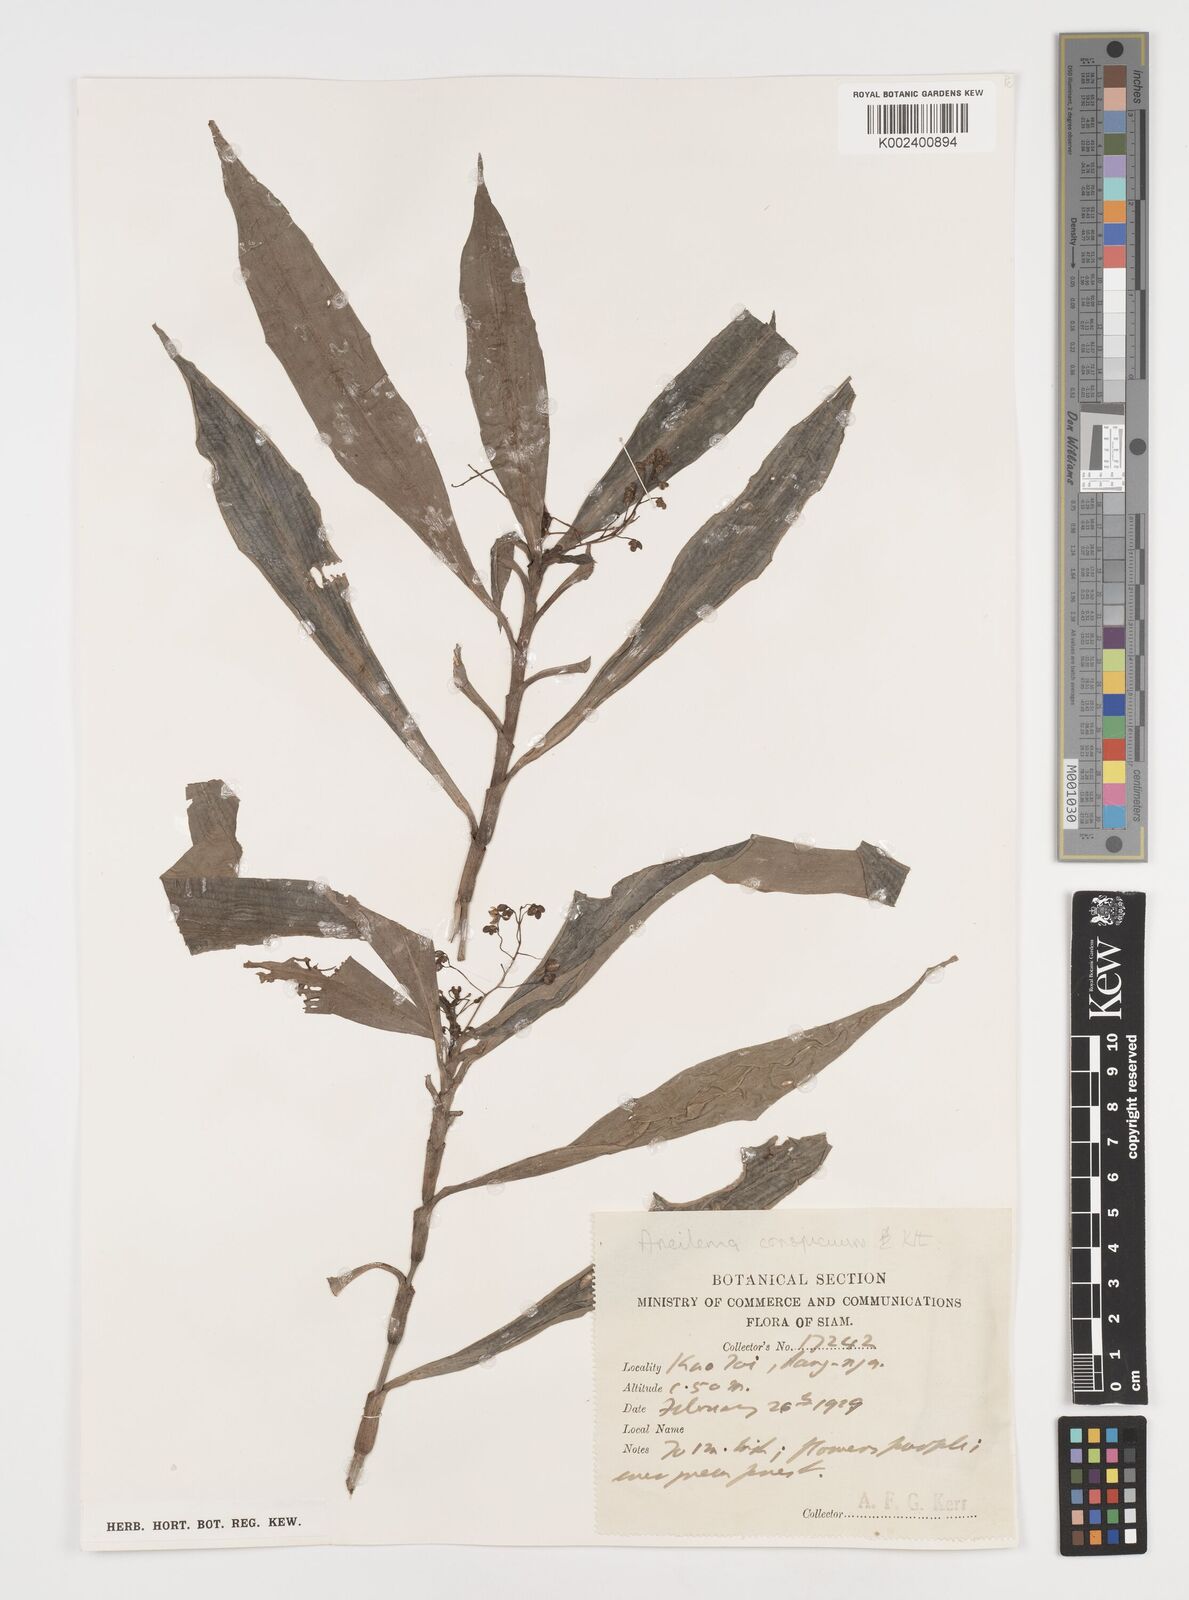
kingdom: Plantae
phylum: Tracheophyta
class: Liliopsida
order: Commelinales
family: Commelinaceae
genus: Dictyospermum
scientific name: Dictyospermum conspicuum
